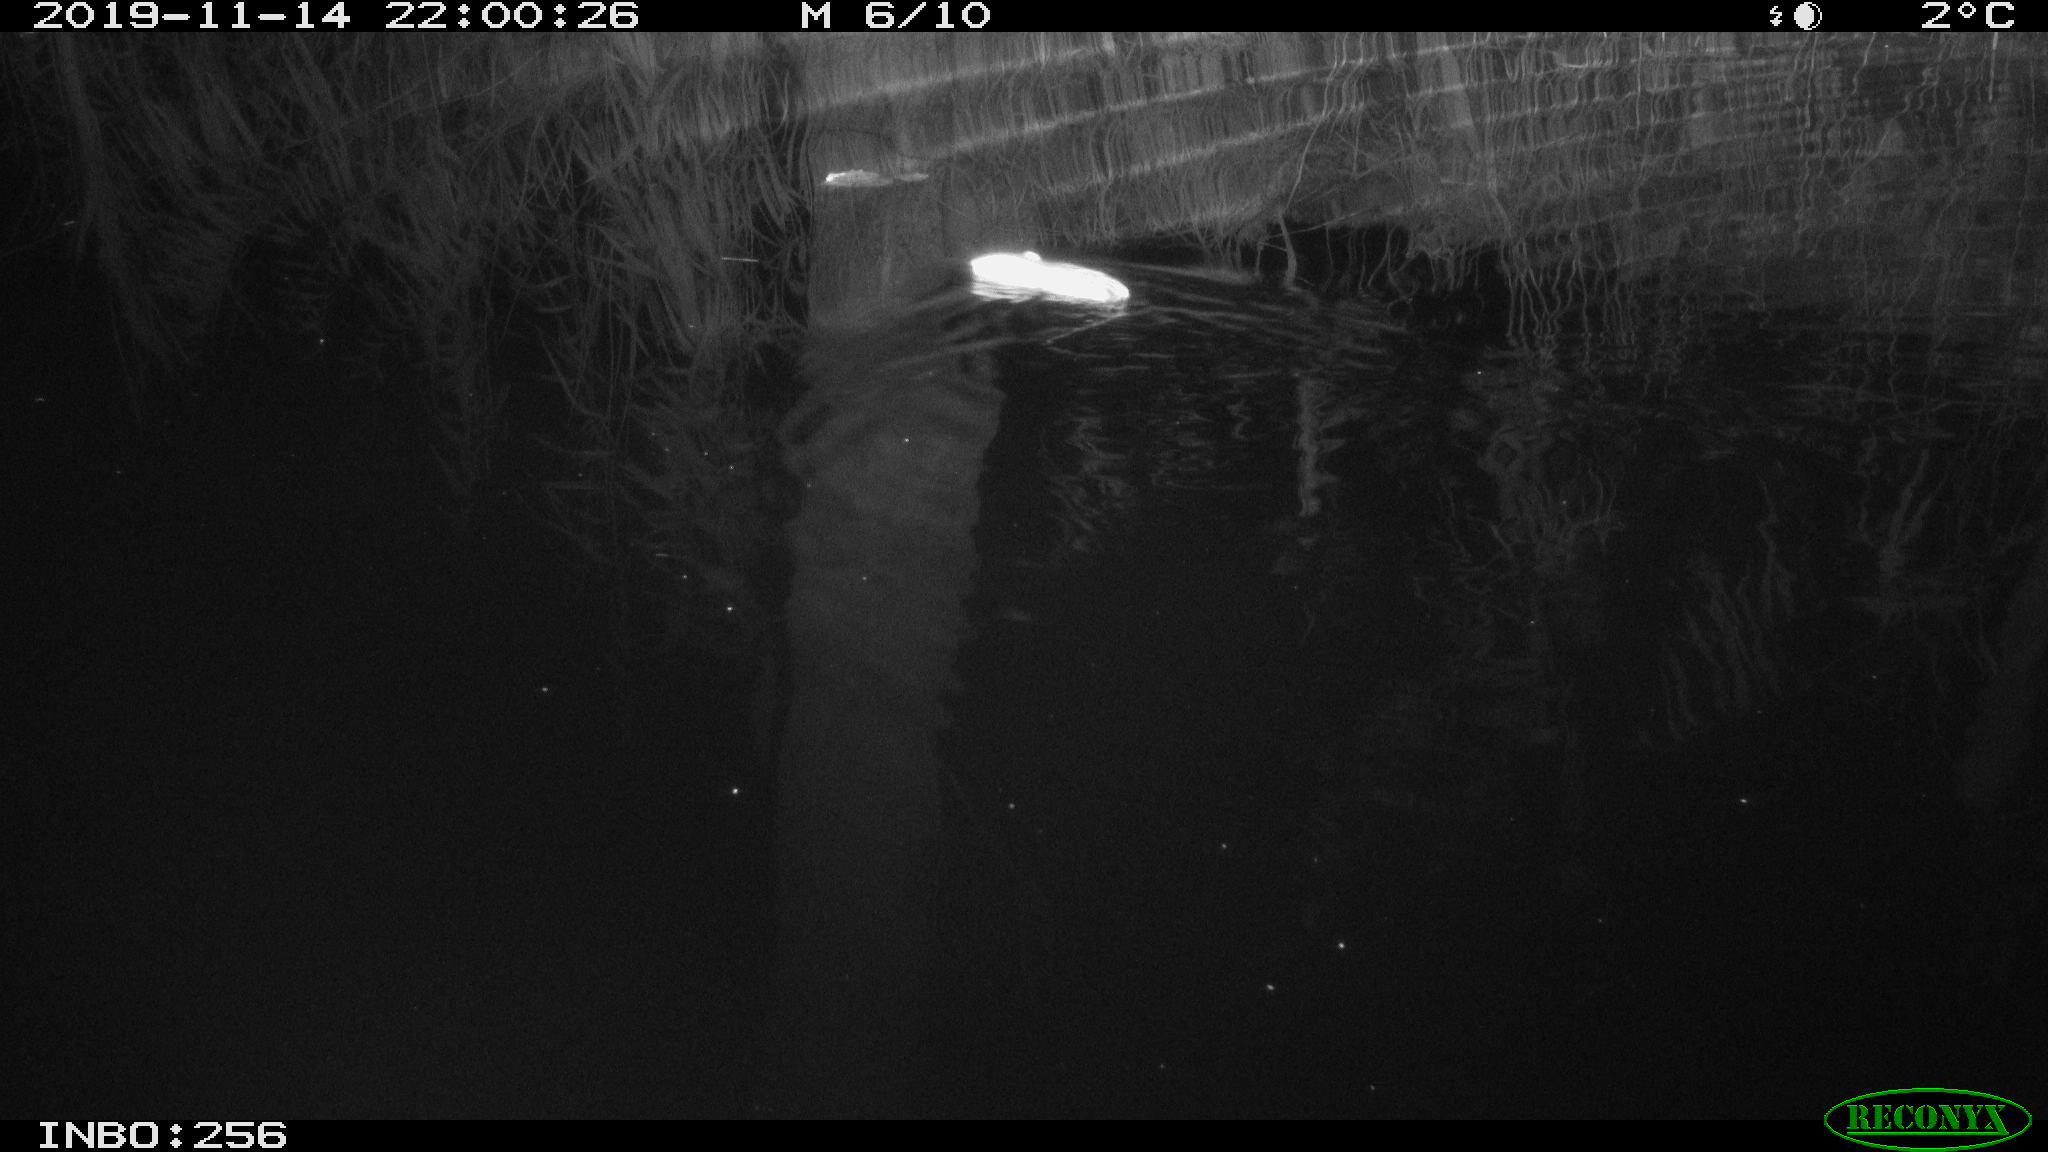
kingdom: Animalia
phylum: Chordata
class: Mammalia
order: Rodentia
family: Muridae
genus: Rattus
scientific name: Rattus norvegicus
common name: Brown rat
